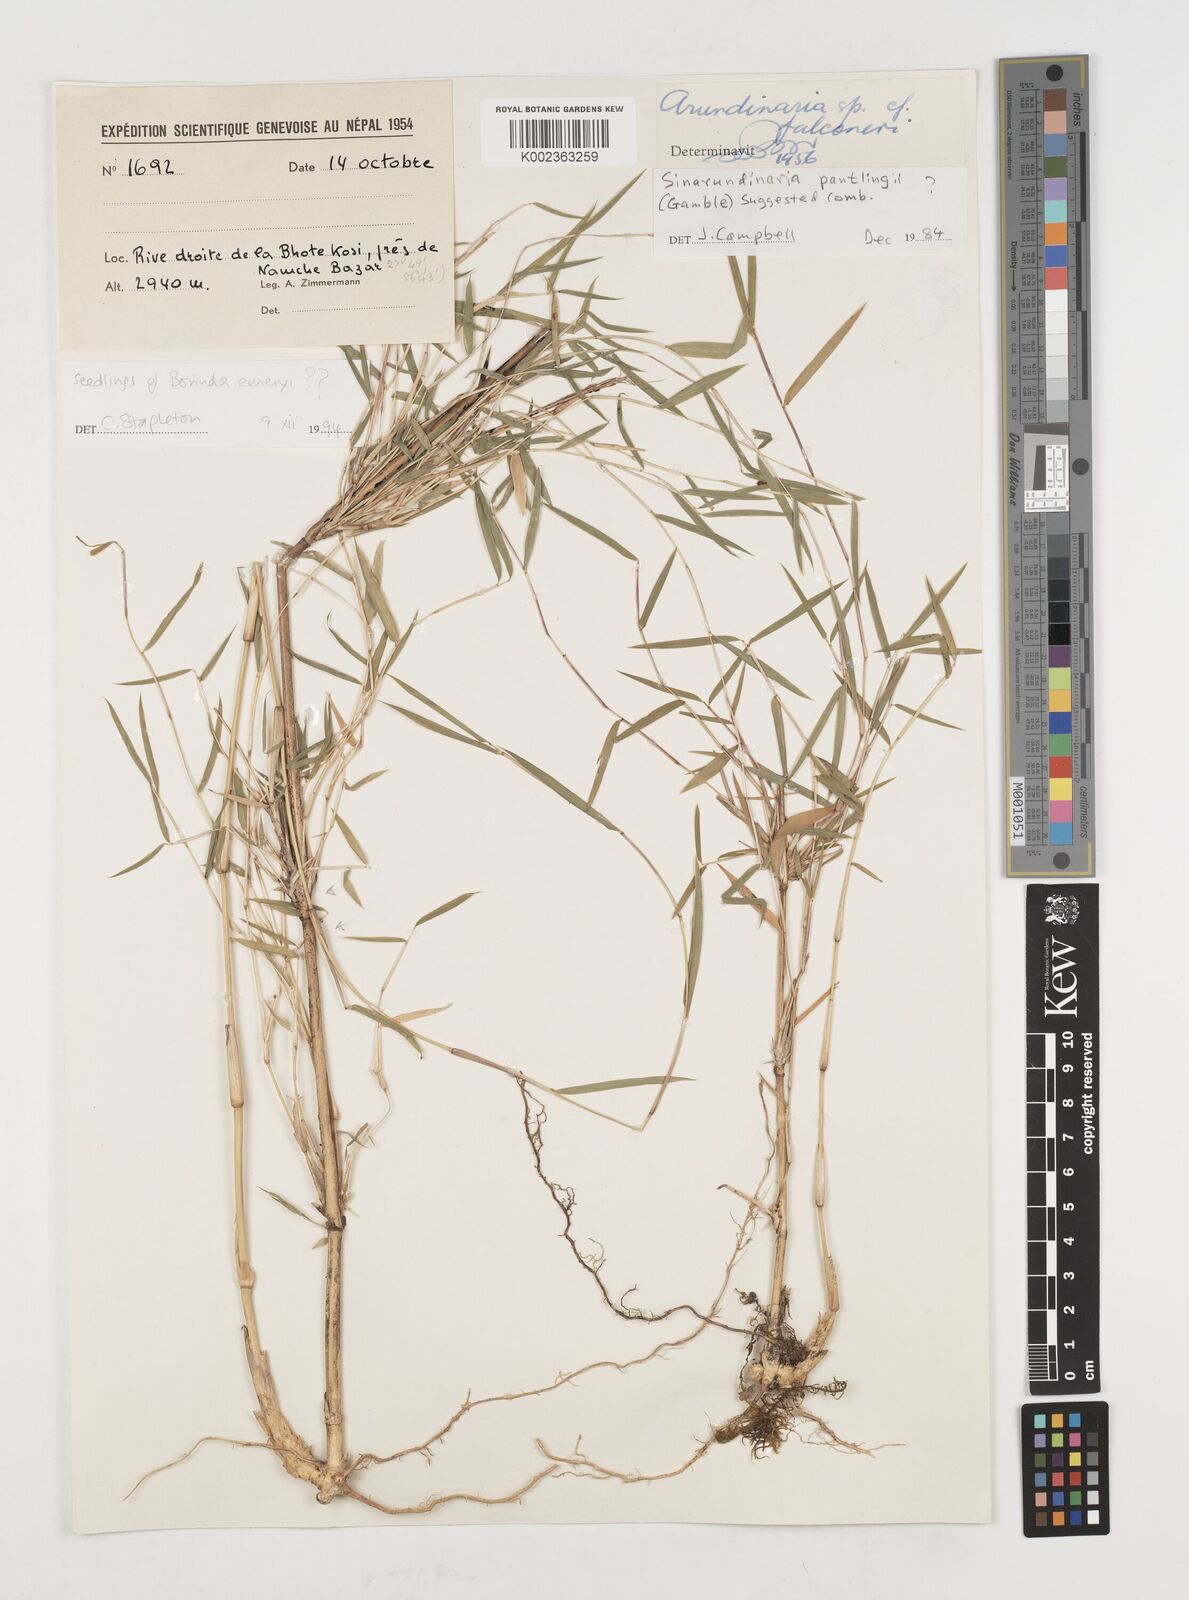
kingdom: Plantae
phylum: Tracheophyta
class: Liliopsida
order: Poales
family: Poaceae
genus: Fargesia
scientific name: Fargesia
